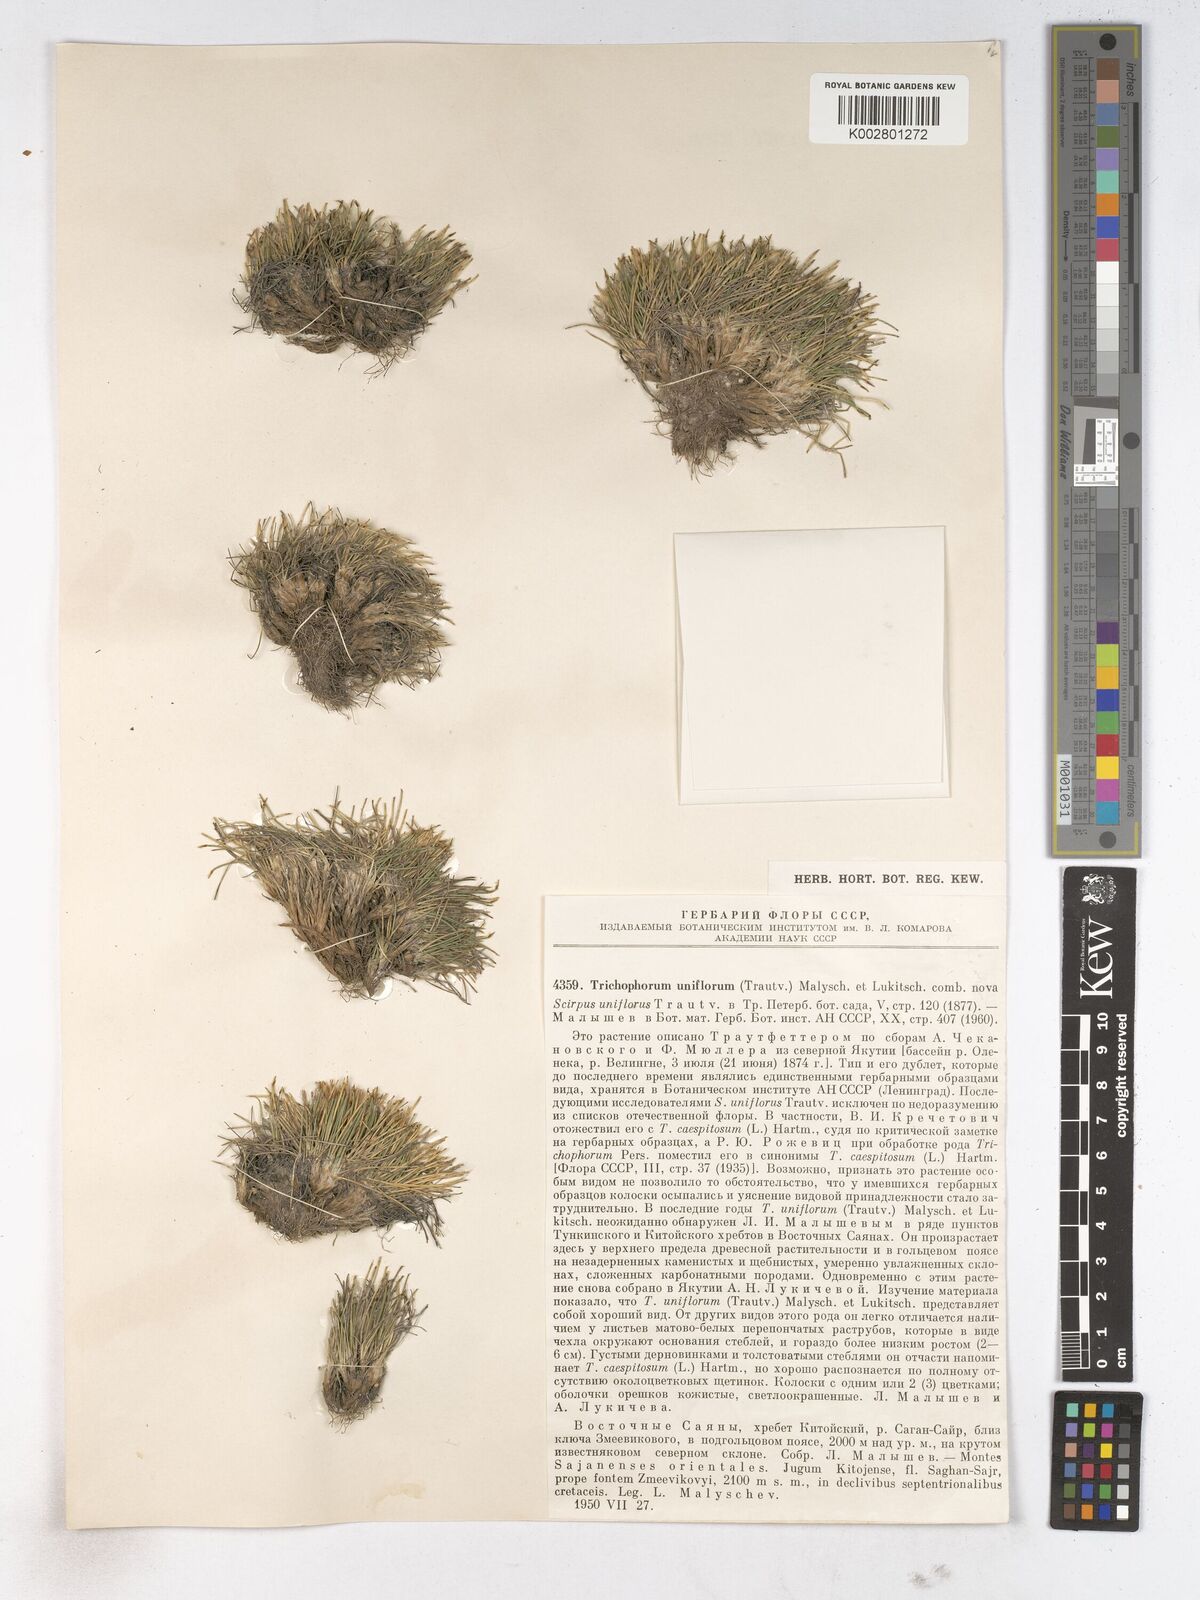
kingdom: Plantae
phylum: Tracheophyta
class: Liliopsida
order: Poales
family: Cyperaceae
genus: Trichophorum
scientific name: Trichophorum pumilum
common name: Rolland's bulrush
